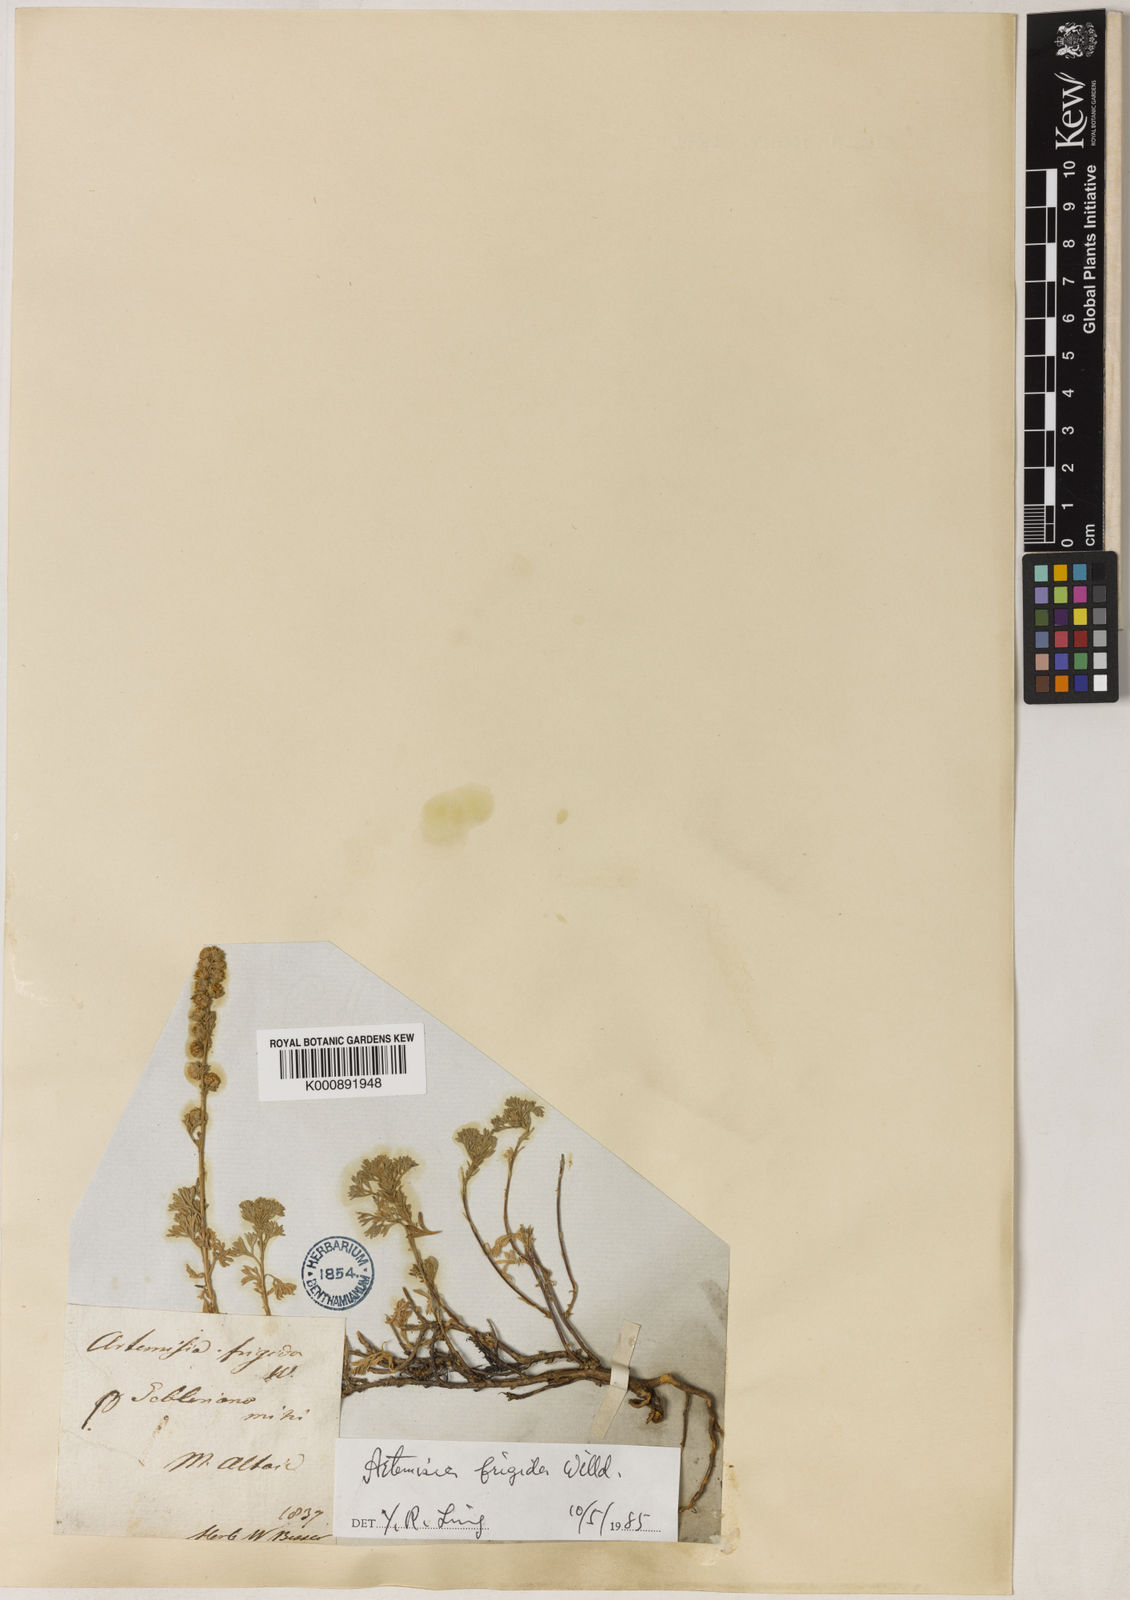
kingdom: Plantae
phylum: Tracheophyta
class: Magnoliopsida
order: Asterales
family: Asteraceae
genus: Artemisia
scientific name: Artemisia frigida
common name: Prairie sagewort
